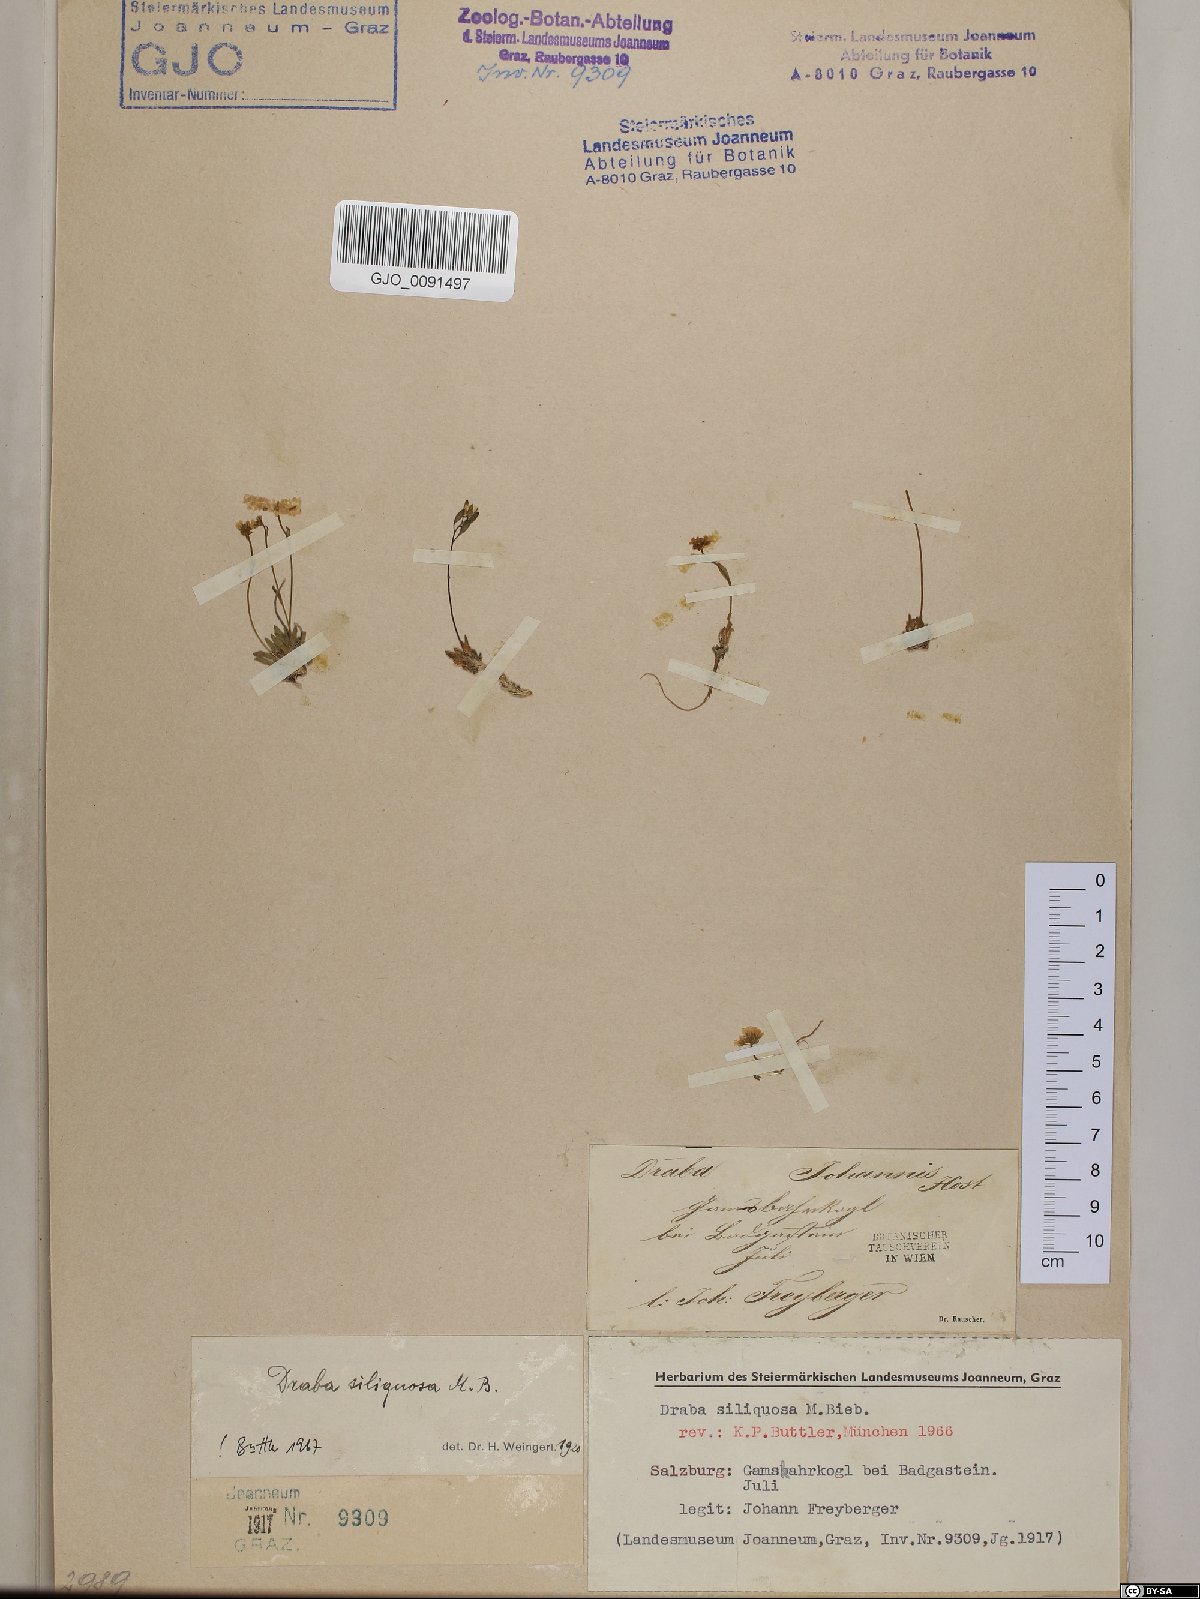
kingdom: Plantae
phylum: Tracheophyta
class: Magnoliopsida
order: Brassicales
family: Brassicaceae
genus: Draba
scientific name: Draba siliquosa
